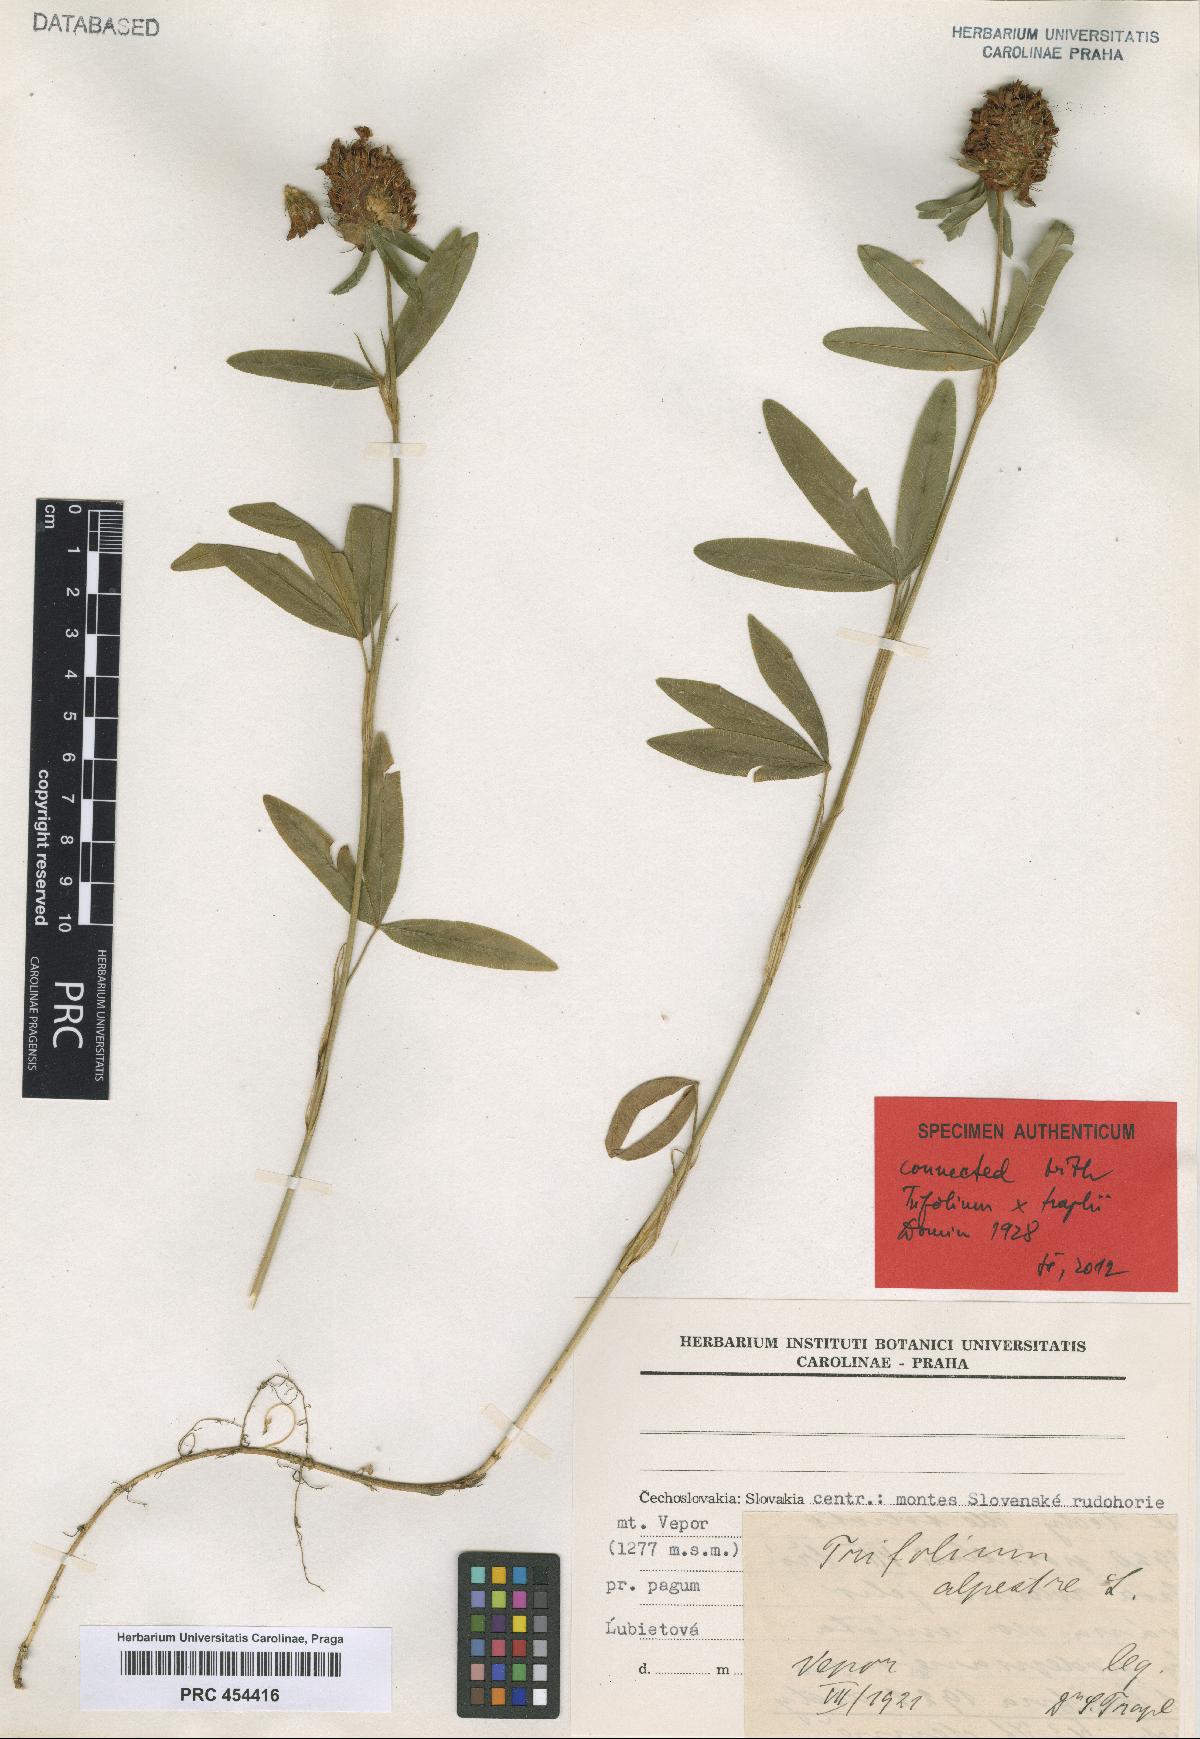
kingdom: Plantae
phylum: Tracheophyta
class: Magnoliopsida
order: Fabales
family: Fabaceae
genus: Trifolium
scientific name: Trifolium traplii
